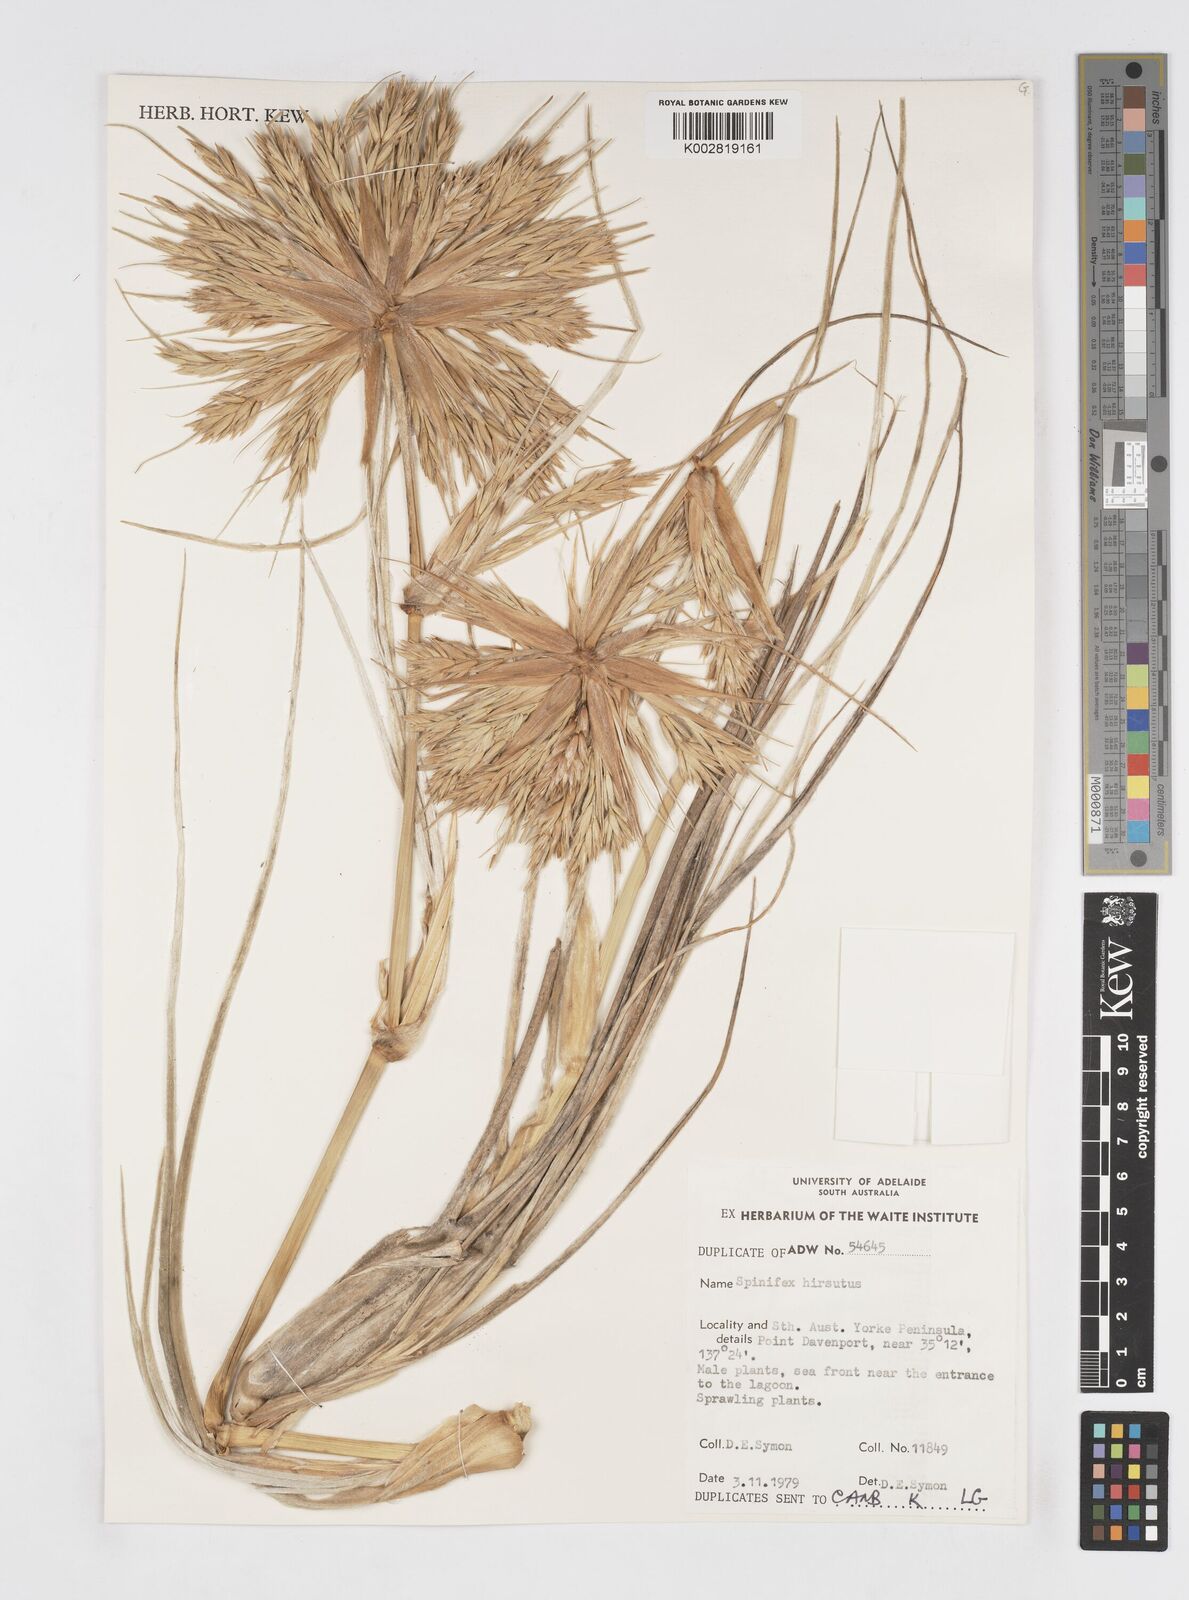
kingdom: Plantae
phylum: Tracheophyta
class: Liliopsida
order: Poales
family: Poaceae
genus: Spinifex
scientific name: Spinifex hirsutus
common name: Hairy spinifex
